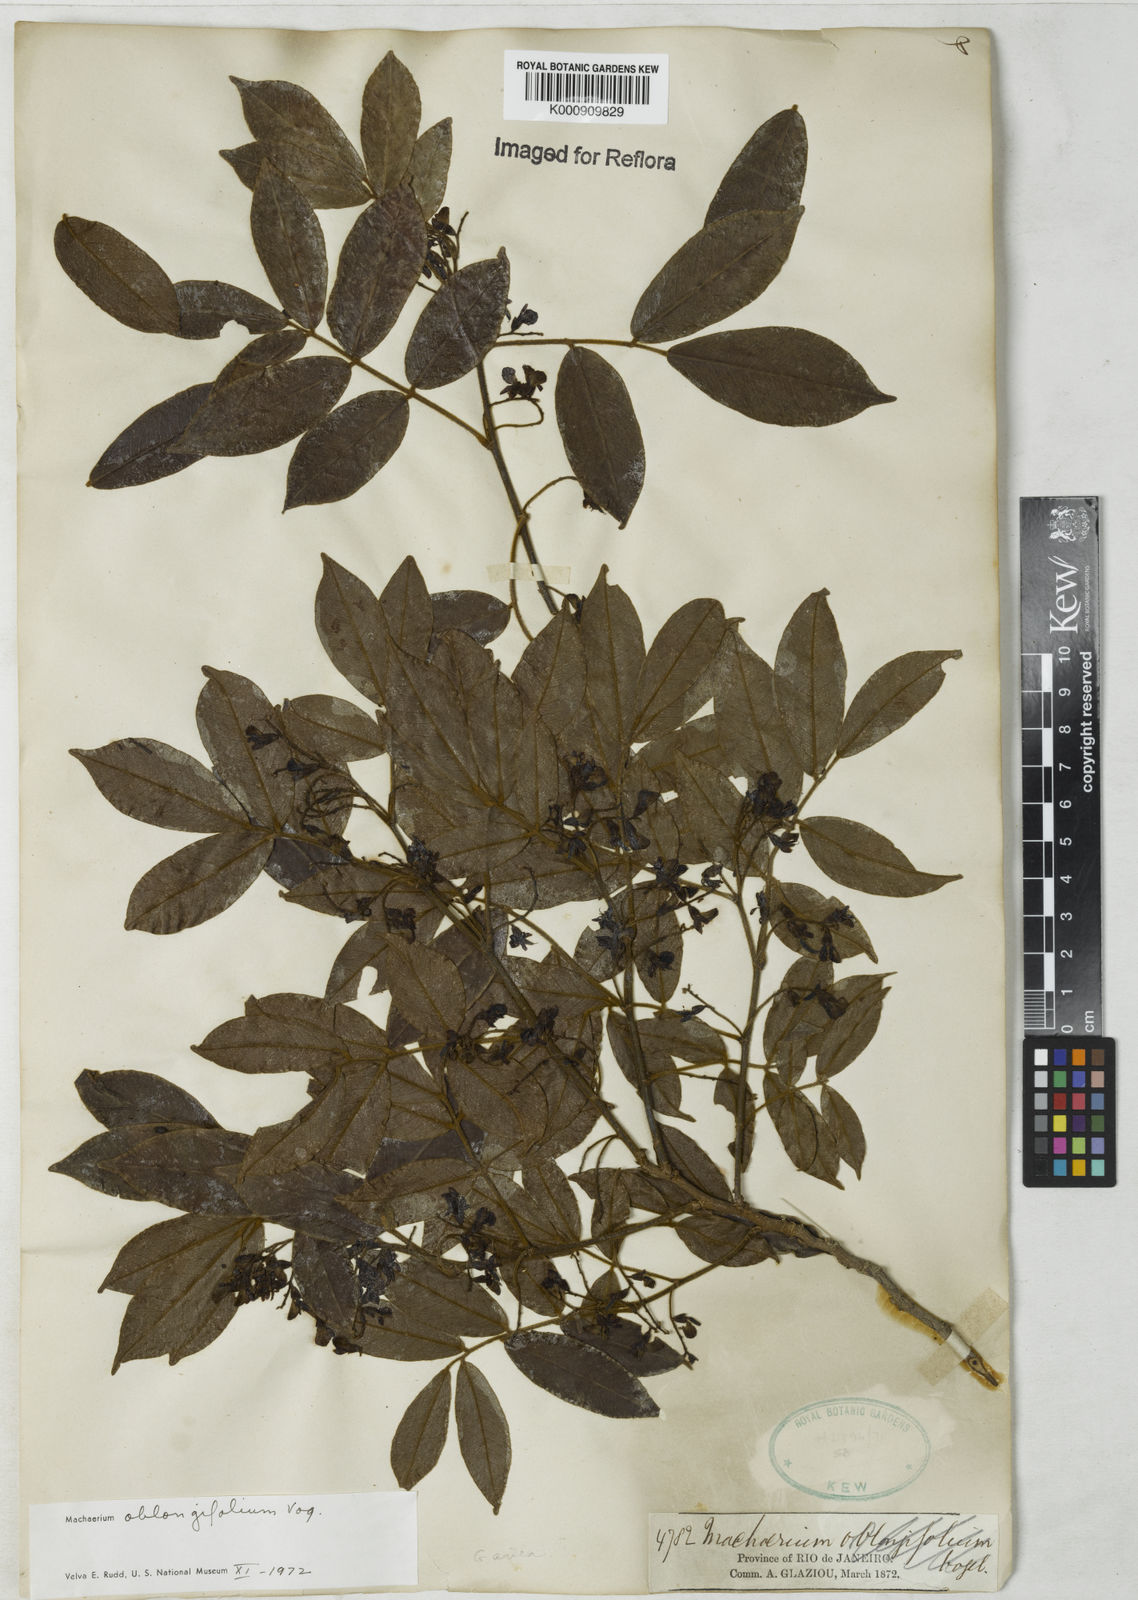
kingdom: Plantae
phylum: Tracheophyta
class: Magnoliopsida
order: Fabales
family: Fabaceae
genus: Machaerium
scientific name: Machaerium oblongifolium
